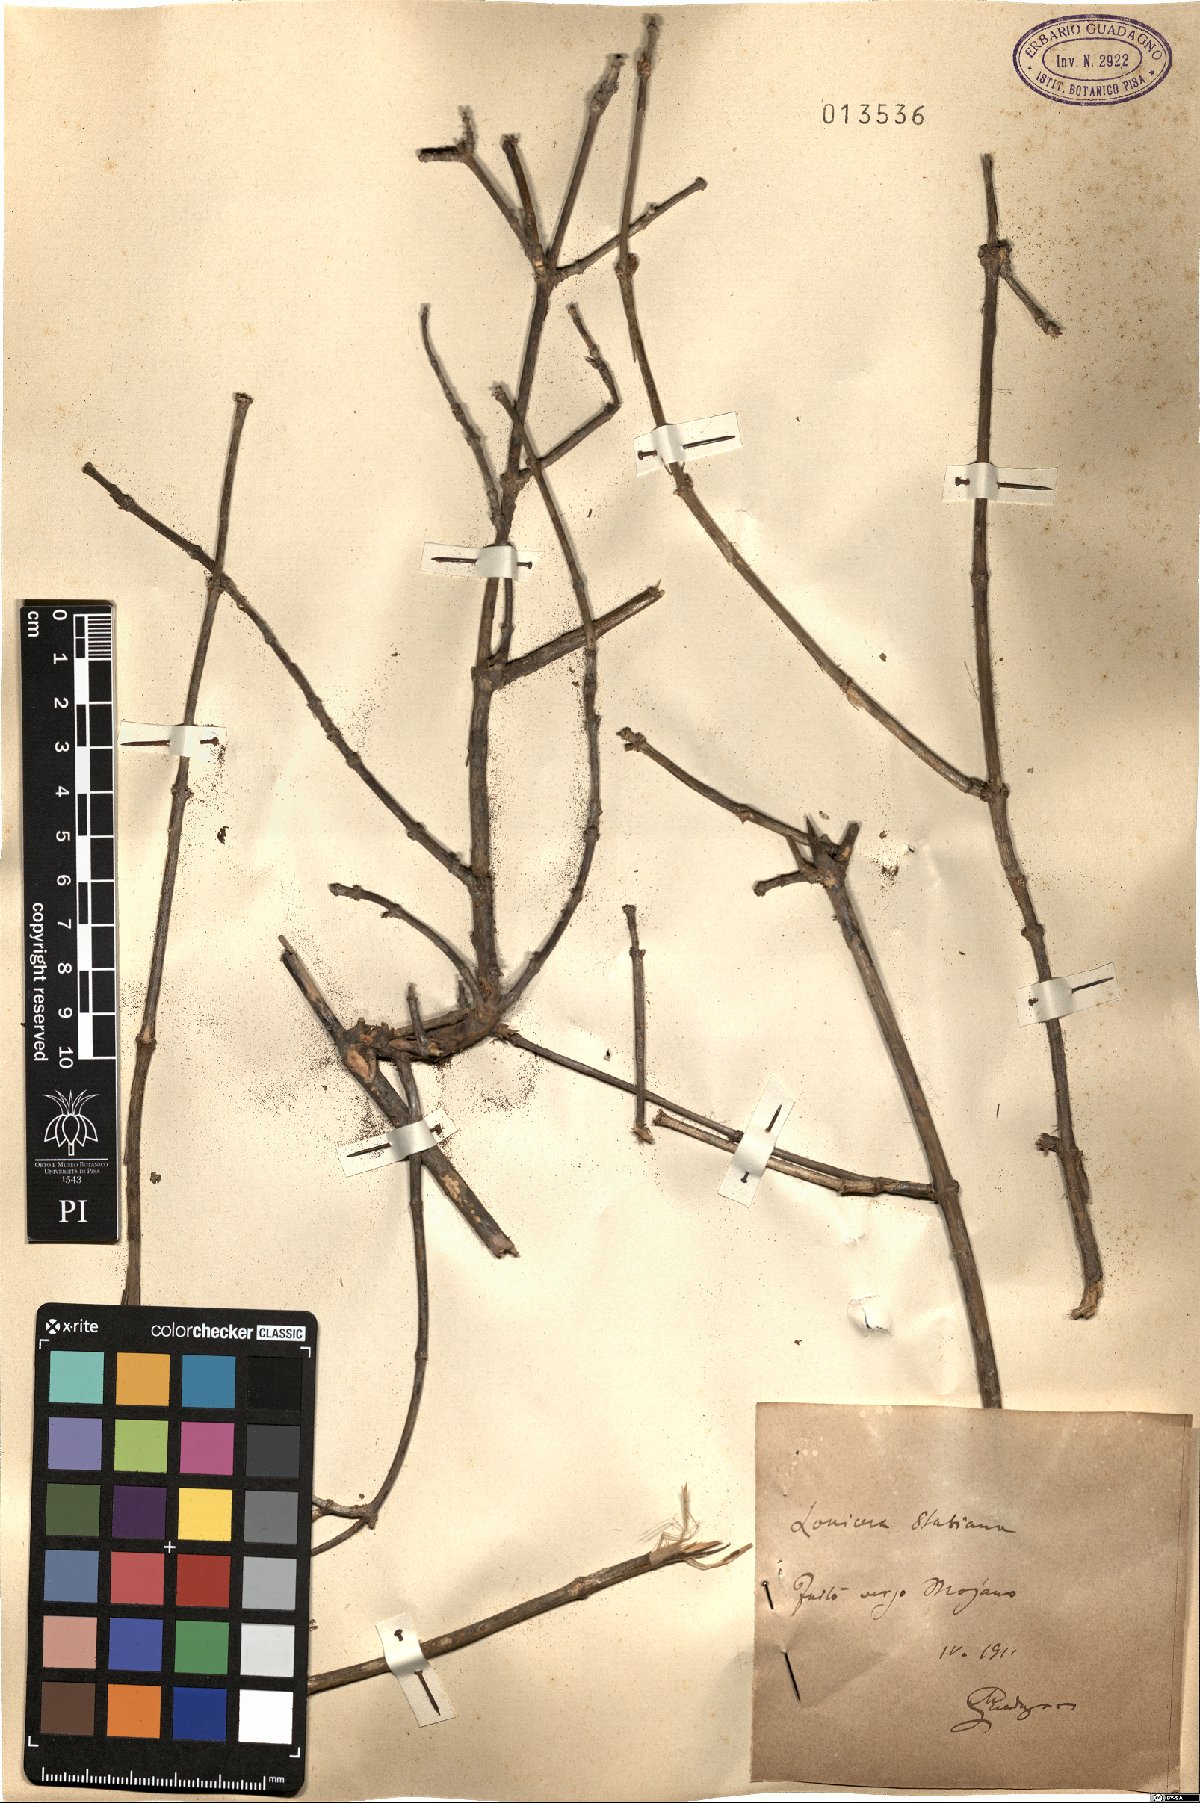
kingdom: Plantae
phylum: Tracheophyta
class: Magnoliopsida
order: Dipsacales
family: Caprifoliaceae
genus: Lonicera
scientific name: Lonicera stabiana
